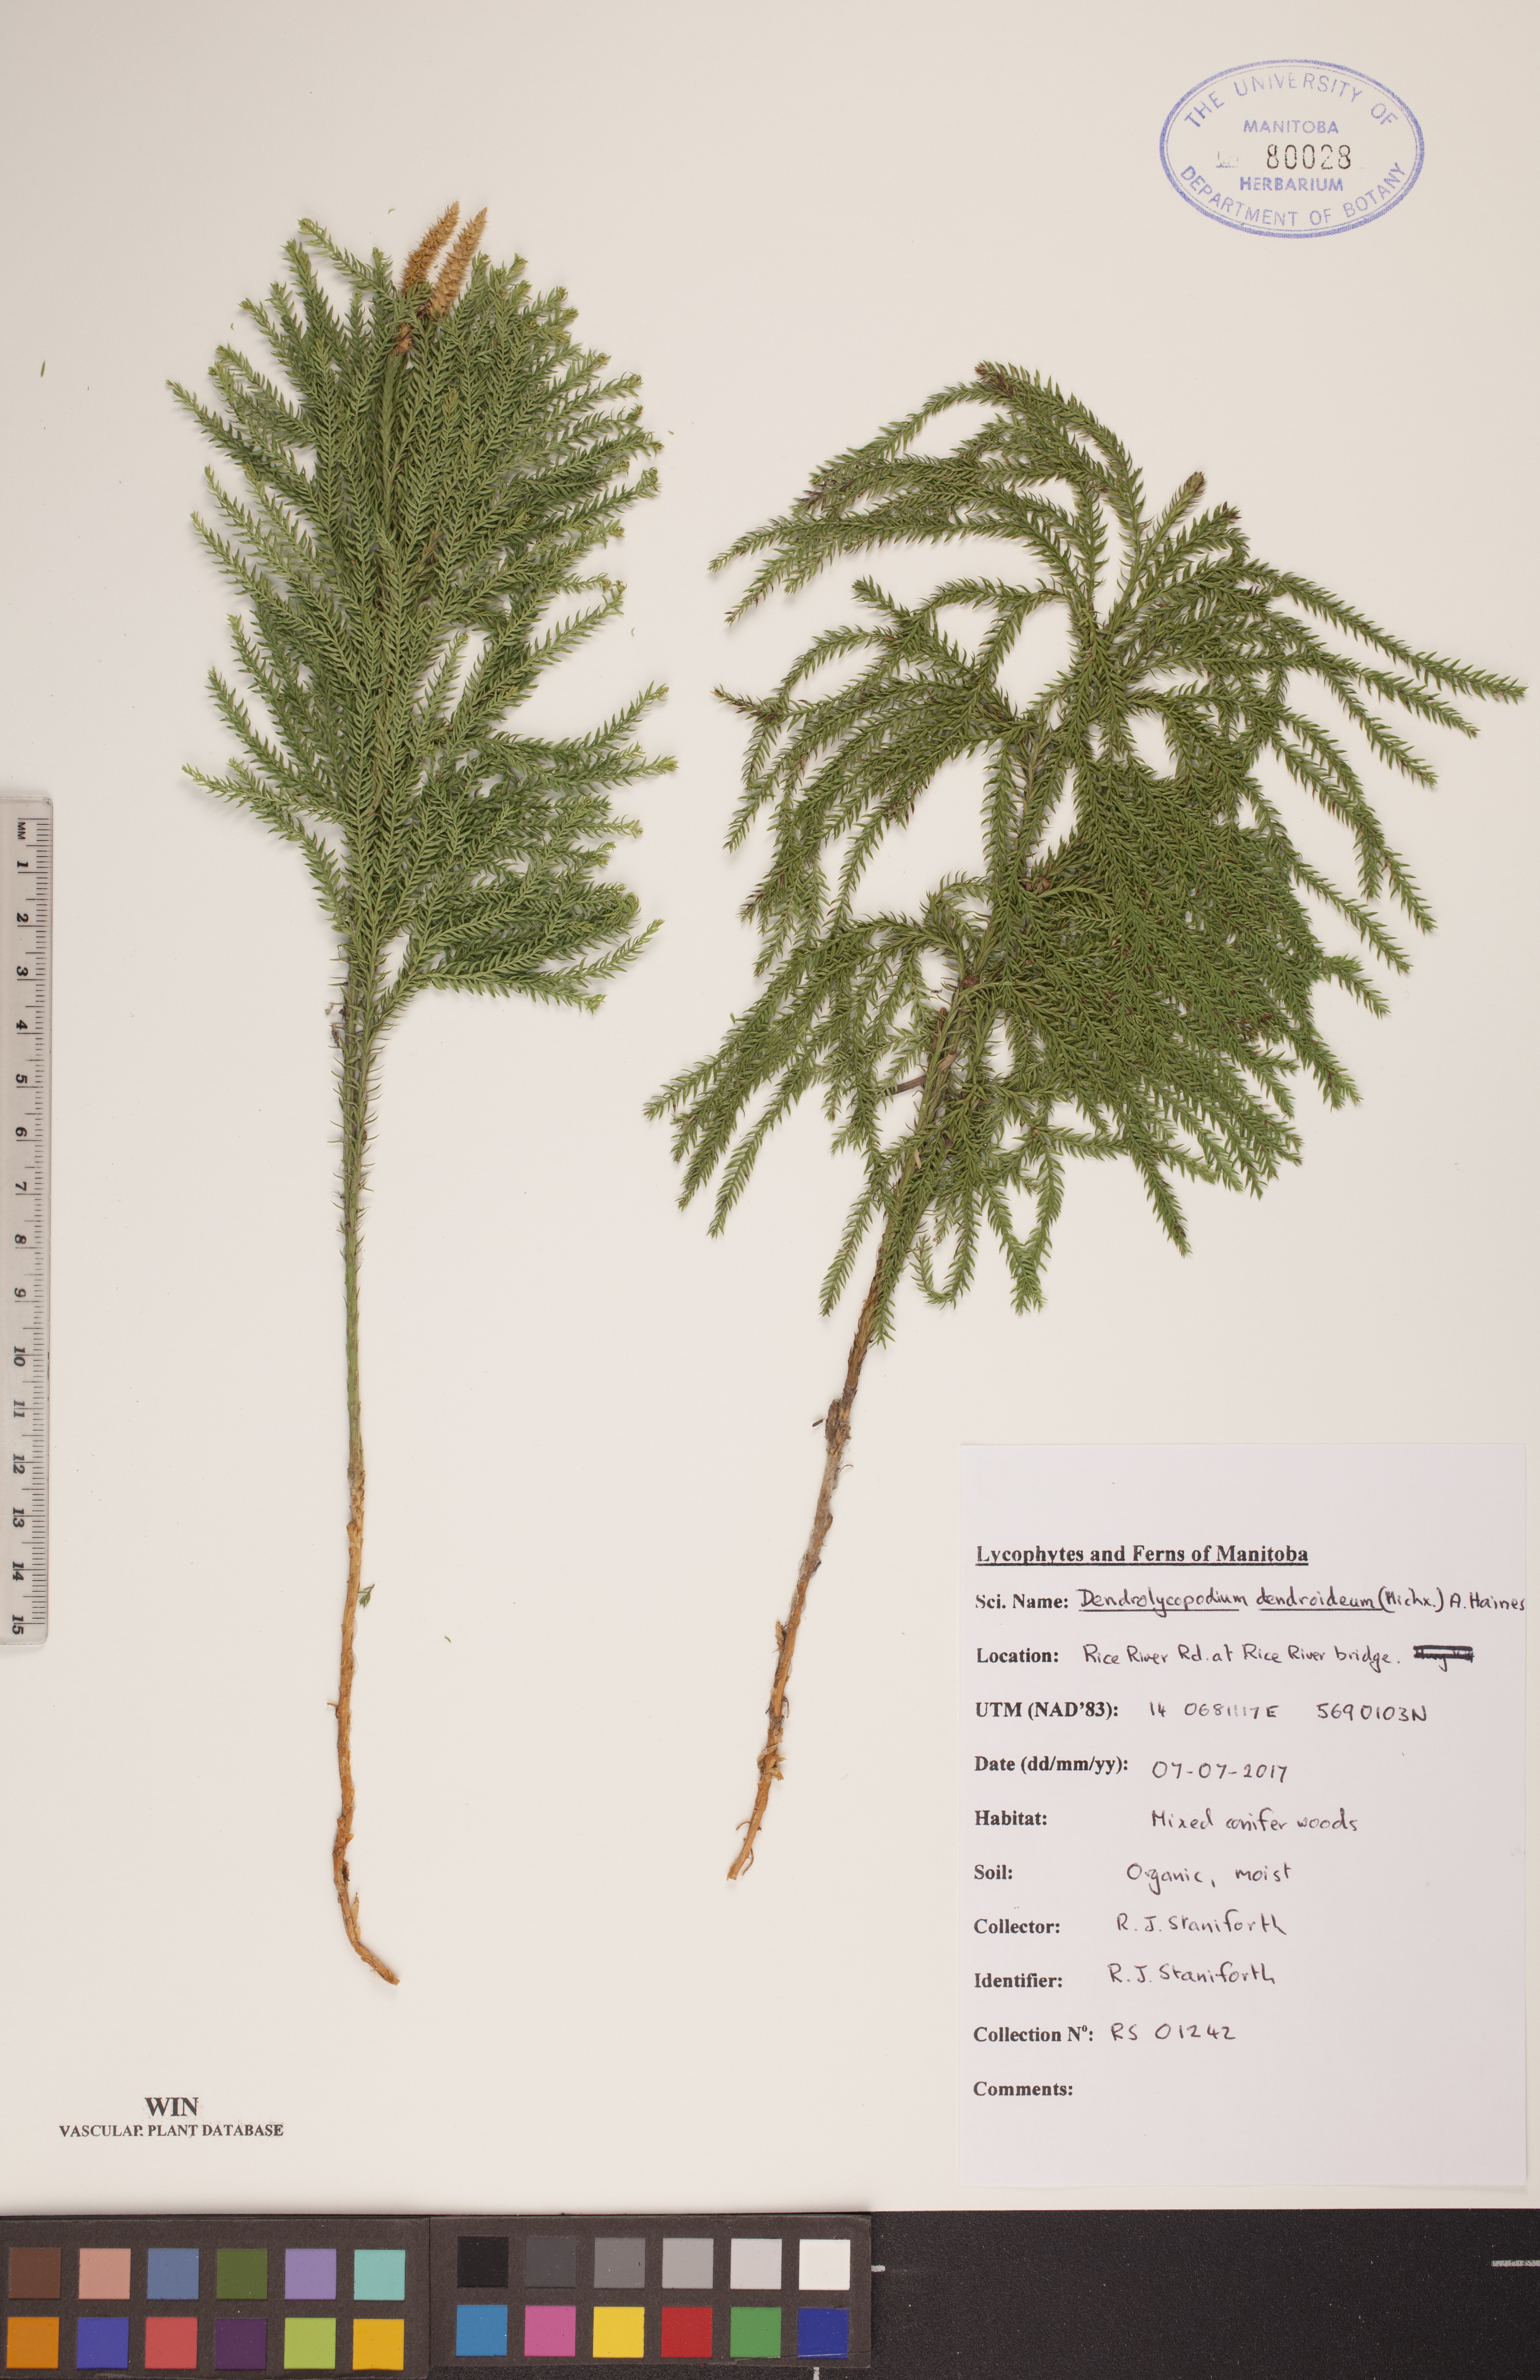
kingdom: Plantae
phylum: Tracheophyta
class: Lycopodiopsida
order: Lycopodiales
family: Lycopodiaceae
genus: Dendrolycopodium
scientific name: Dendrolycopodium dendroideum
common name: Northern tree-clubmoss
